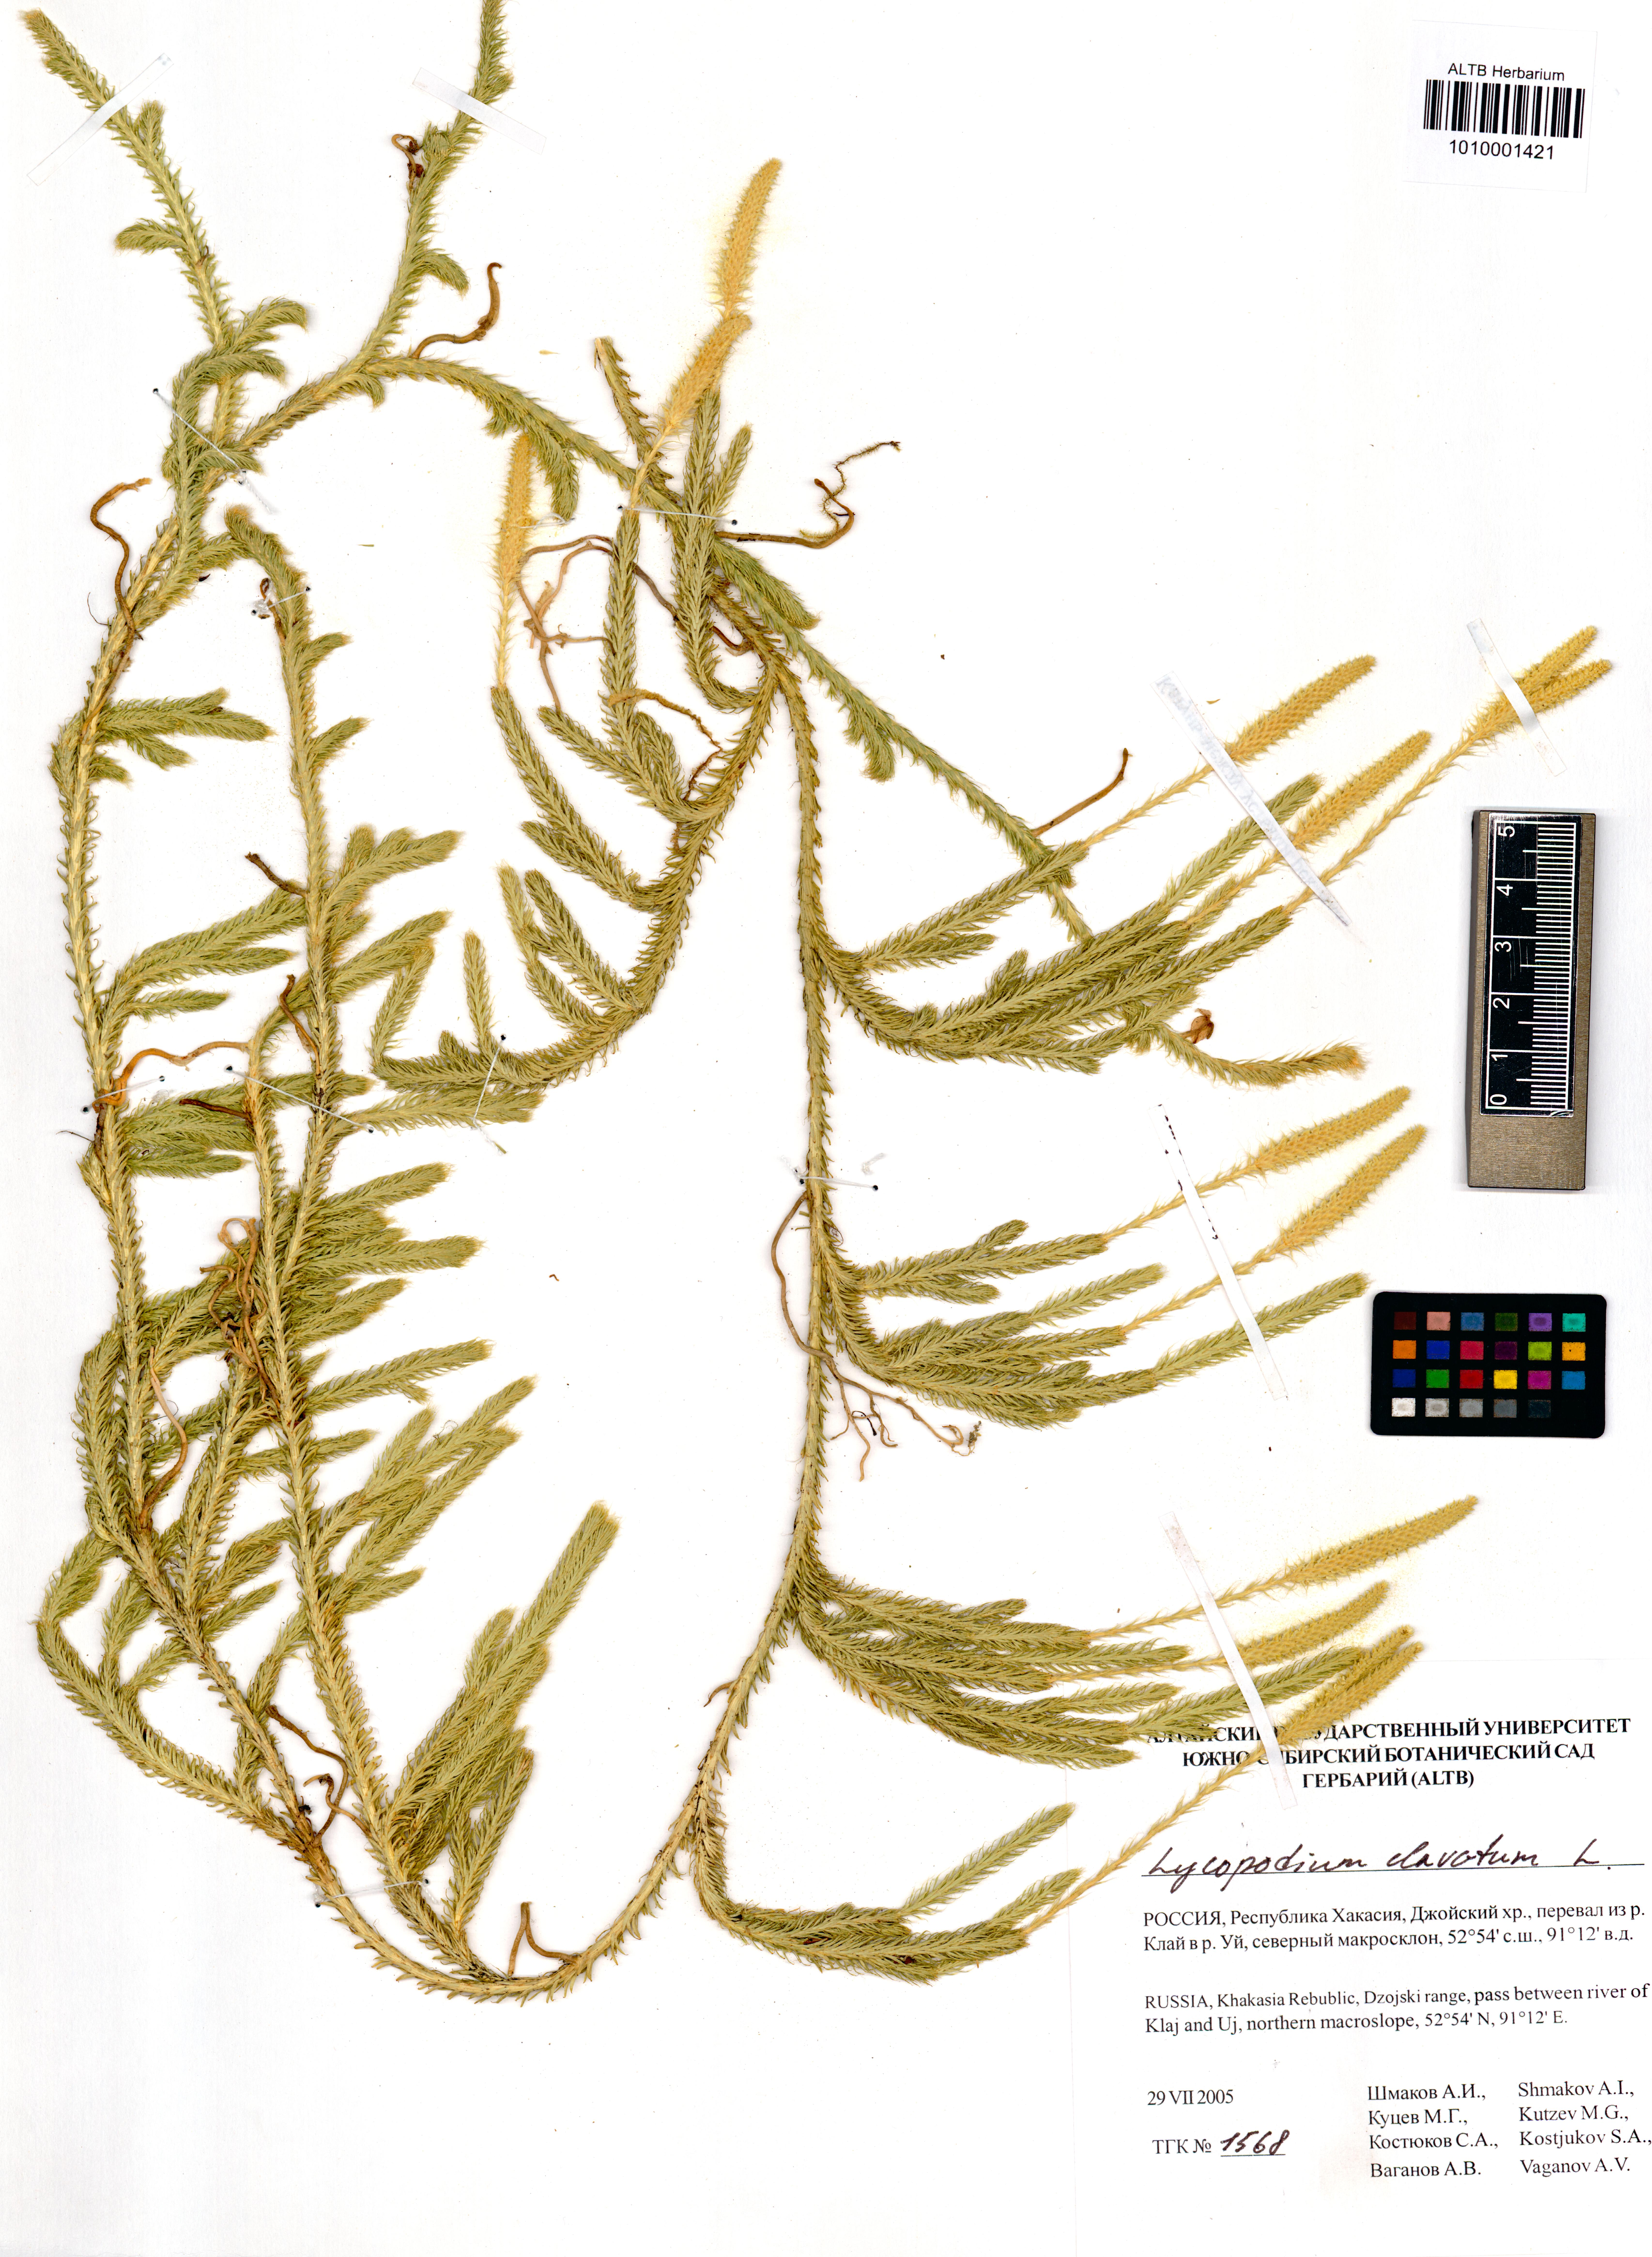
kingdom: Plantae
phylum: Tracheophyta
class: Lycopodiopsida
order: Lycopodiales
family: Lycopodiaceae
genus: Lycopodium
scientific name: Lycopodium clavatum
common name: Stag's-horn clubmoss
